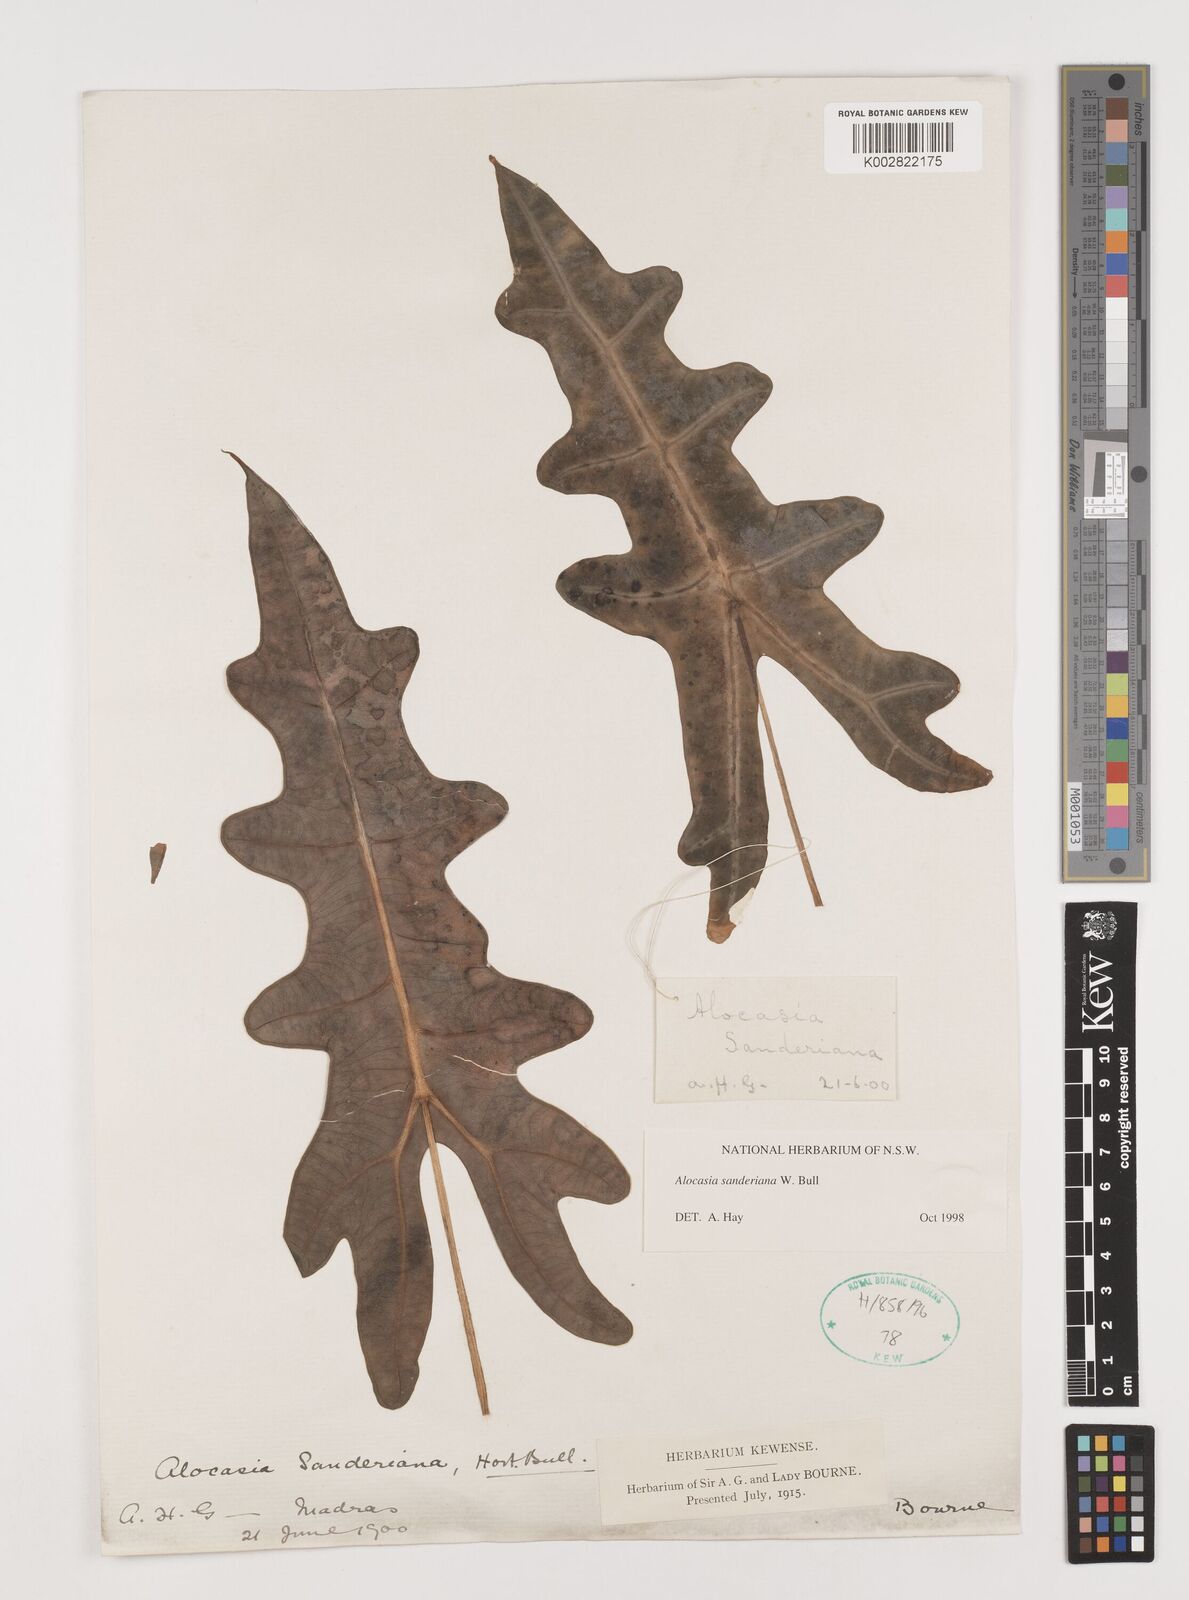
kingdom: Plantae
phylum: Tracheophyta
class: Liliopsida
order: Alismatales
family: Araceae
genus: Alocasia
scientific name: Alocasia sanderiana
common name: Sander's alocasia
